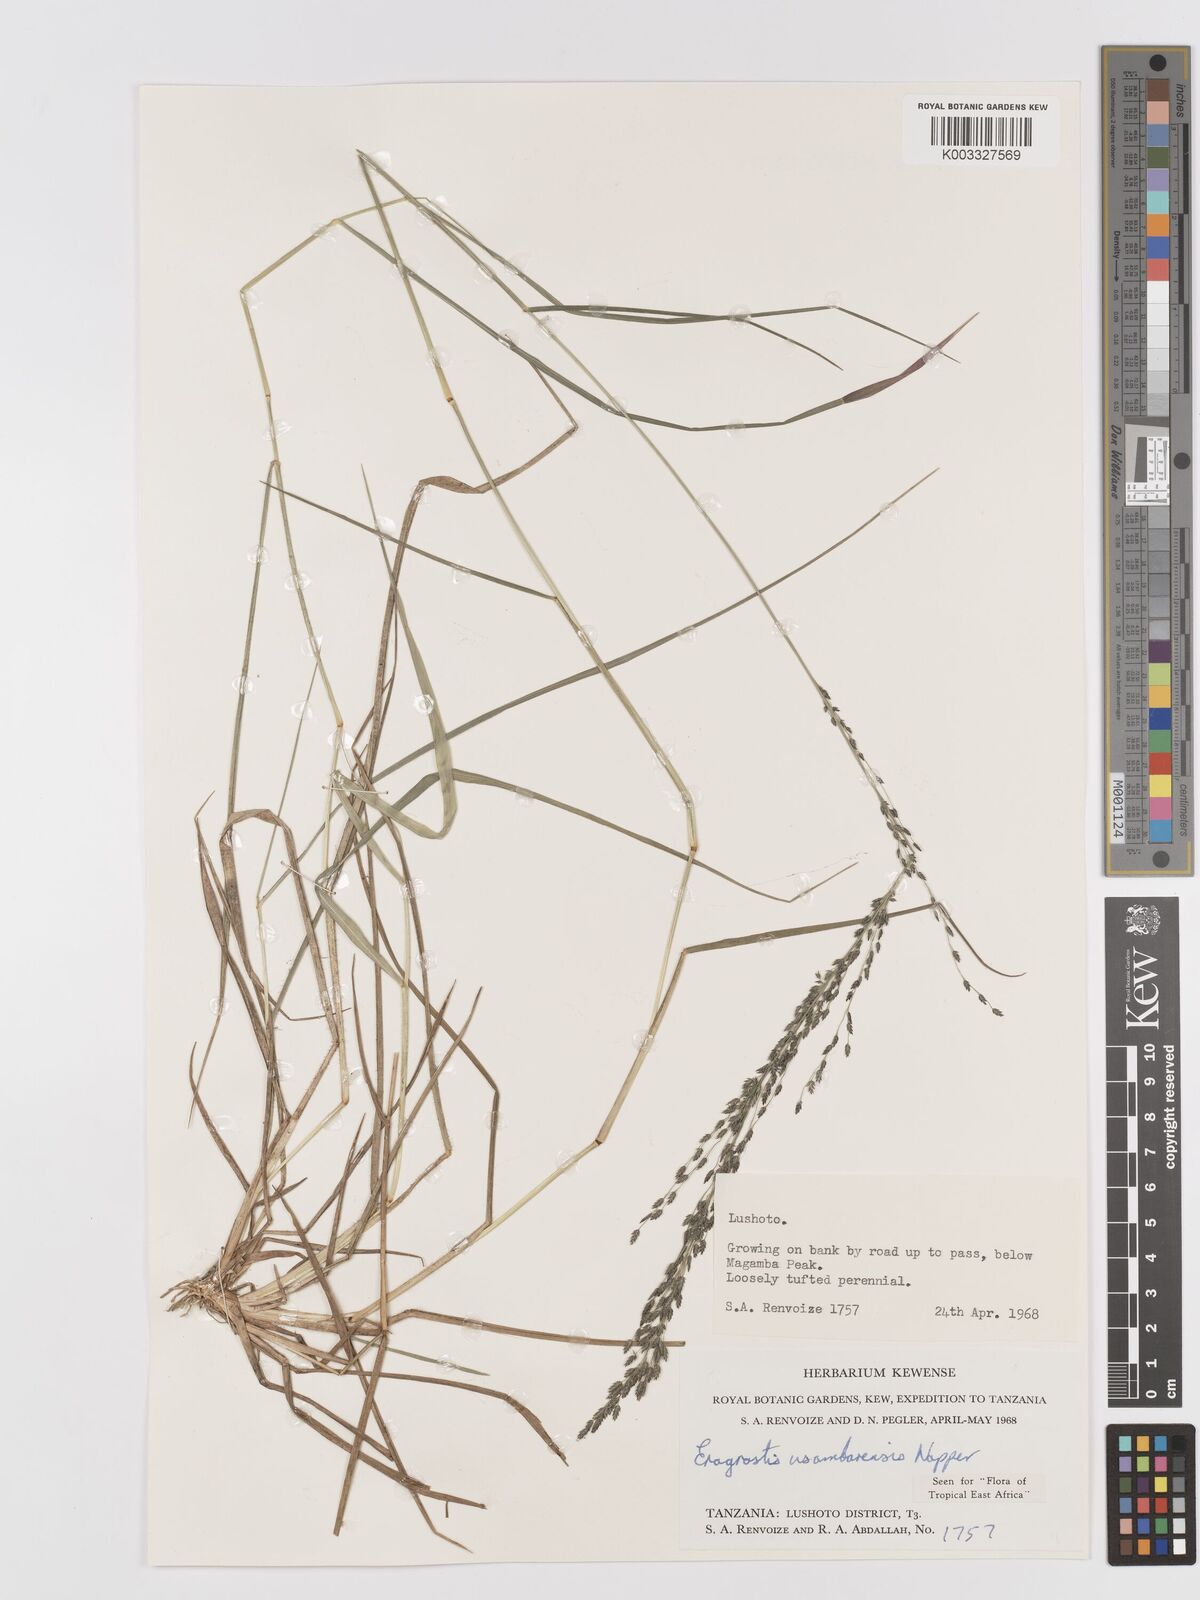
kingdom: Plantae
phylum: Tracheophyta
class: Liliopsida
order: Poales
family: Poaceae
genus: Eragrostis
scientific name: Eragrostis usambarensis
